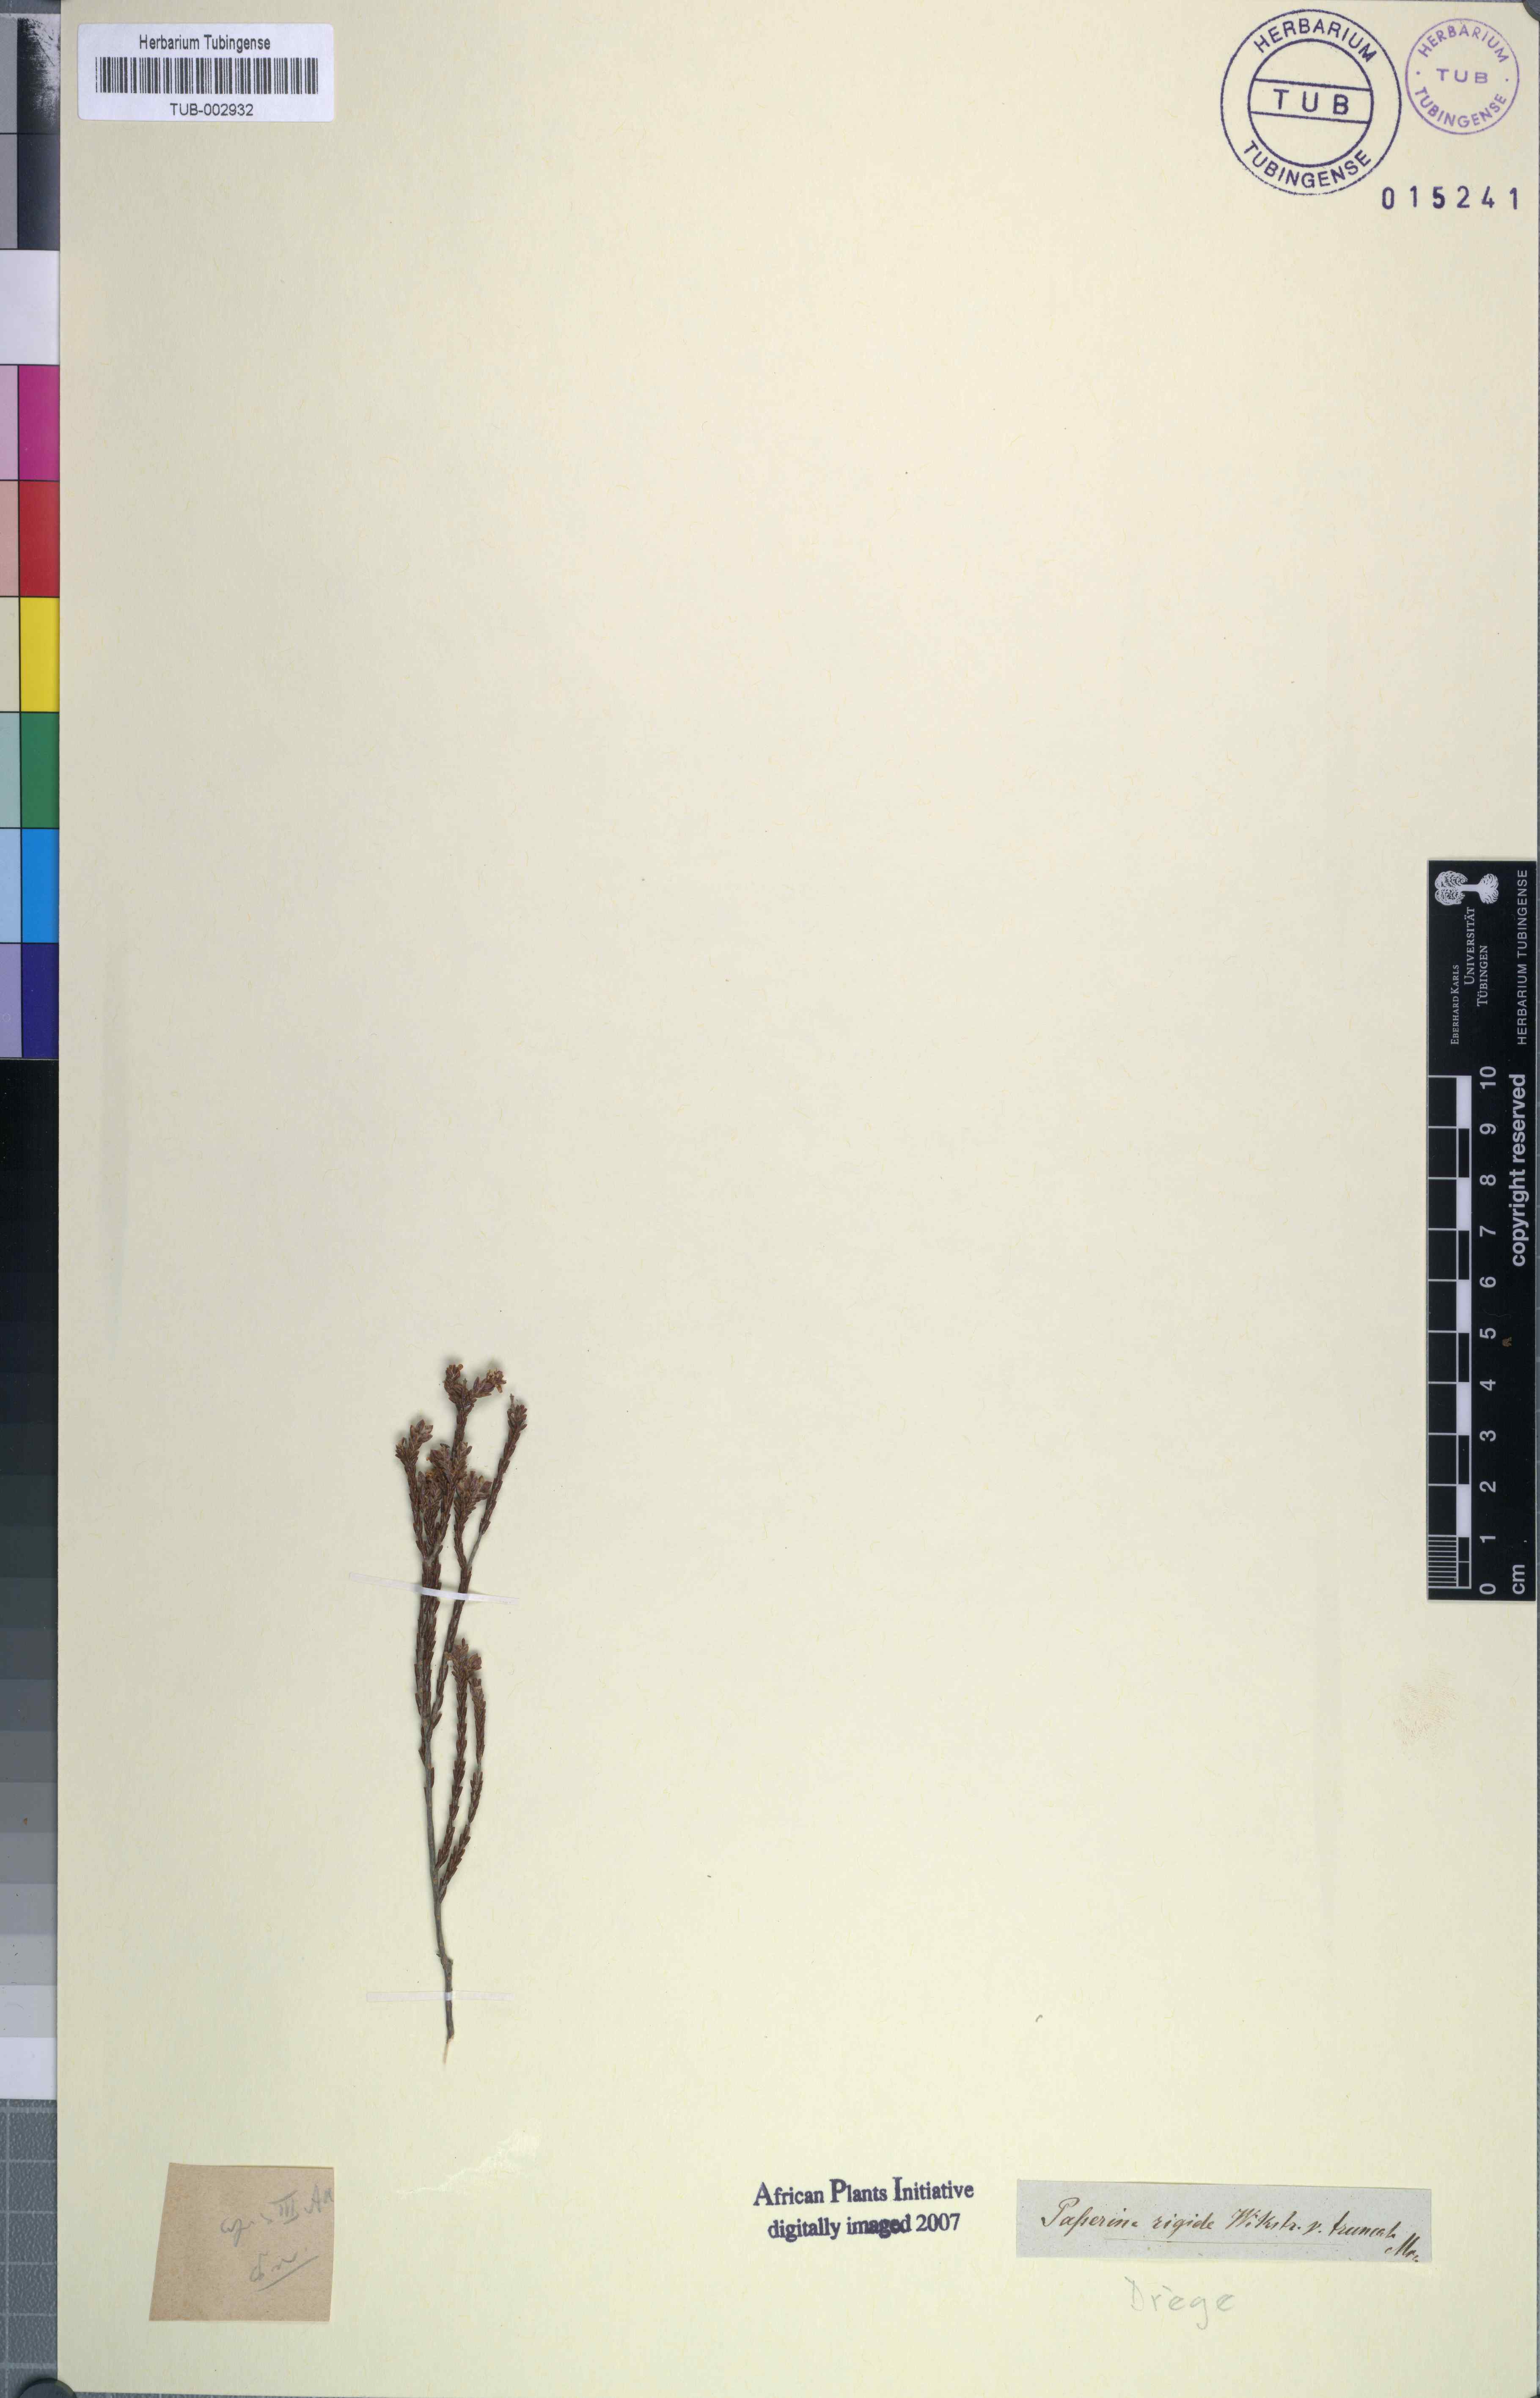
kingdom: Plantae
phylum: Tracheophyta
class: Magnoliopsida
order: Malvales
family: Thymelaeaceae
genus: Passerina
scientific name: Passerina rigida
